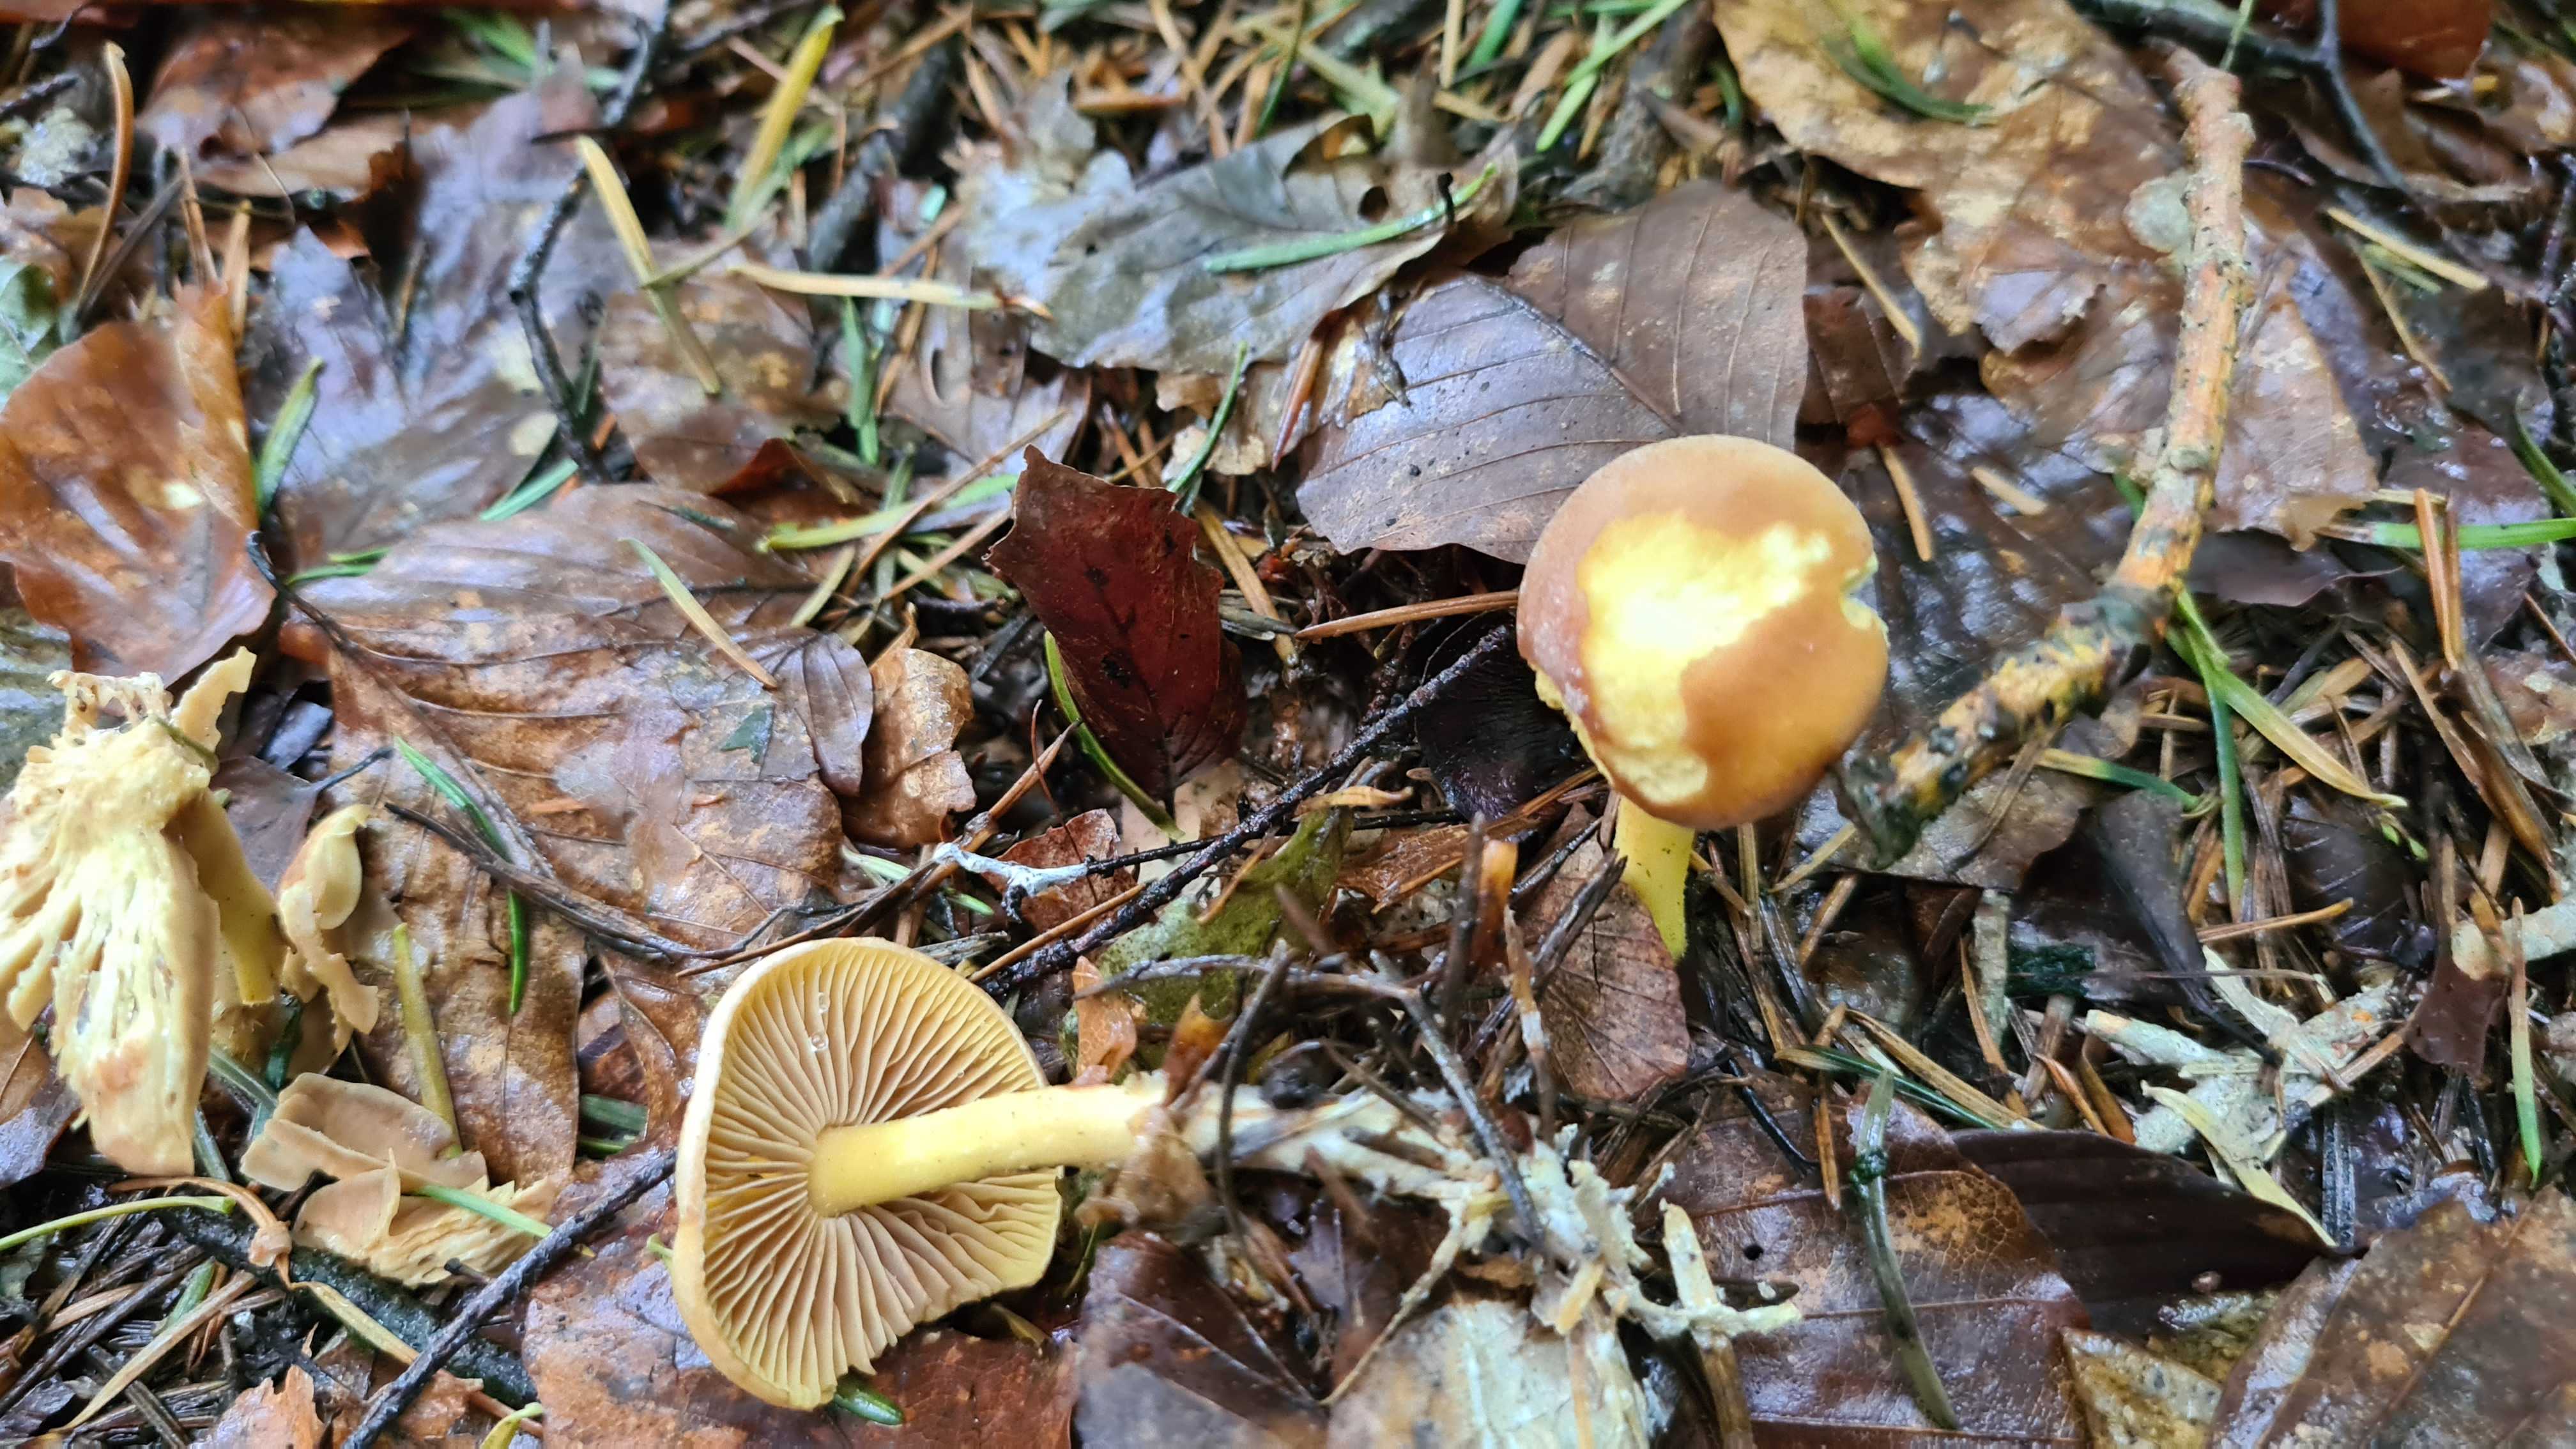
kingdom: Fungi
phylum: Basidiomycota
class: Agaricomycetes
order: Agaricales
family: Omphalotaceae
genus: Collybiopsis
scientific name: Collybiopsis peronata
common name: bestøvlet fladhat
